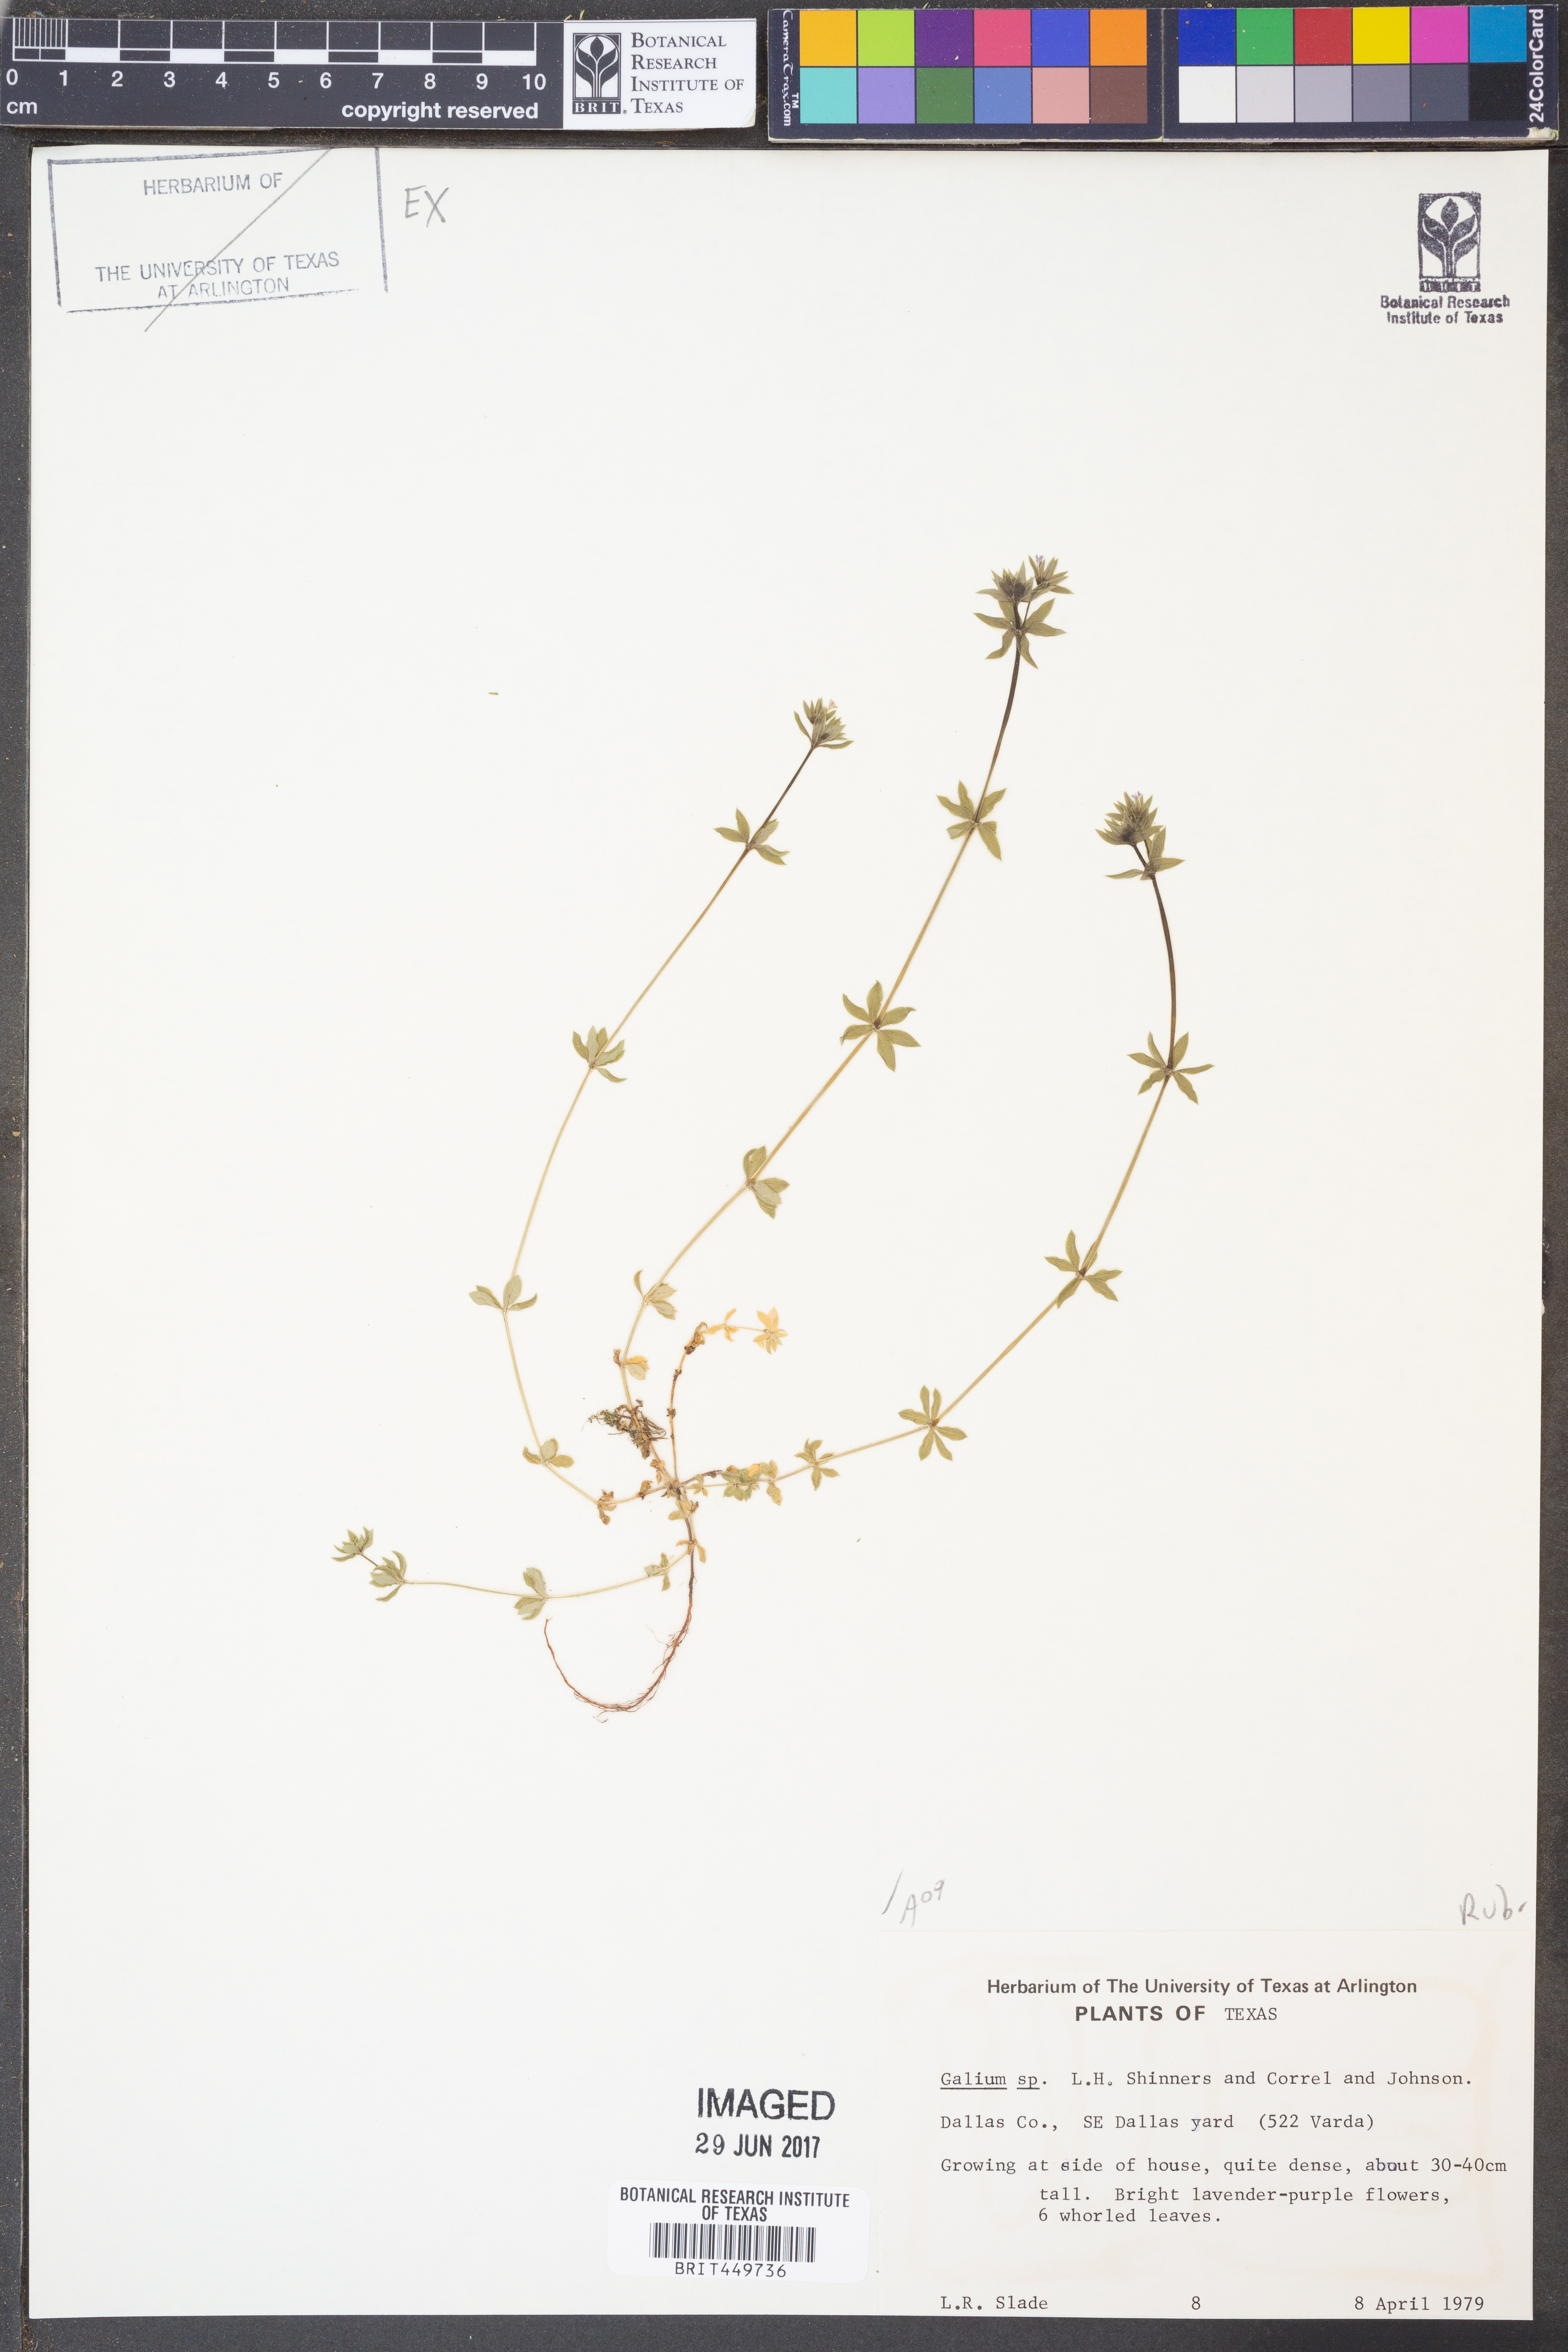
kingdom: Plantae
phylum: Tracheophyta
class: Magnoliopsida
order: Gentianales
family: Rubiaceae
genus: Galium
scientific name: Galium
